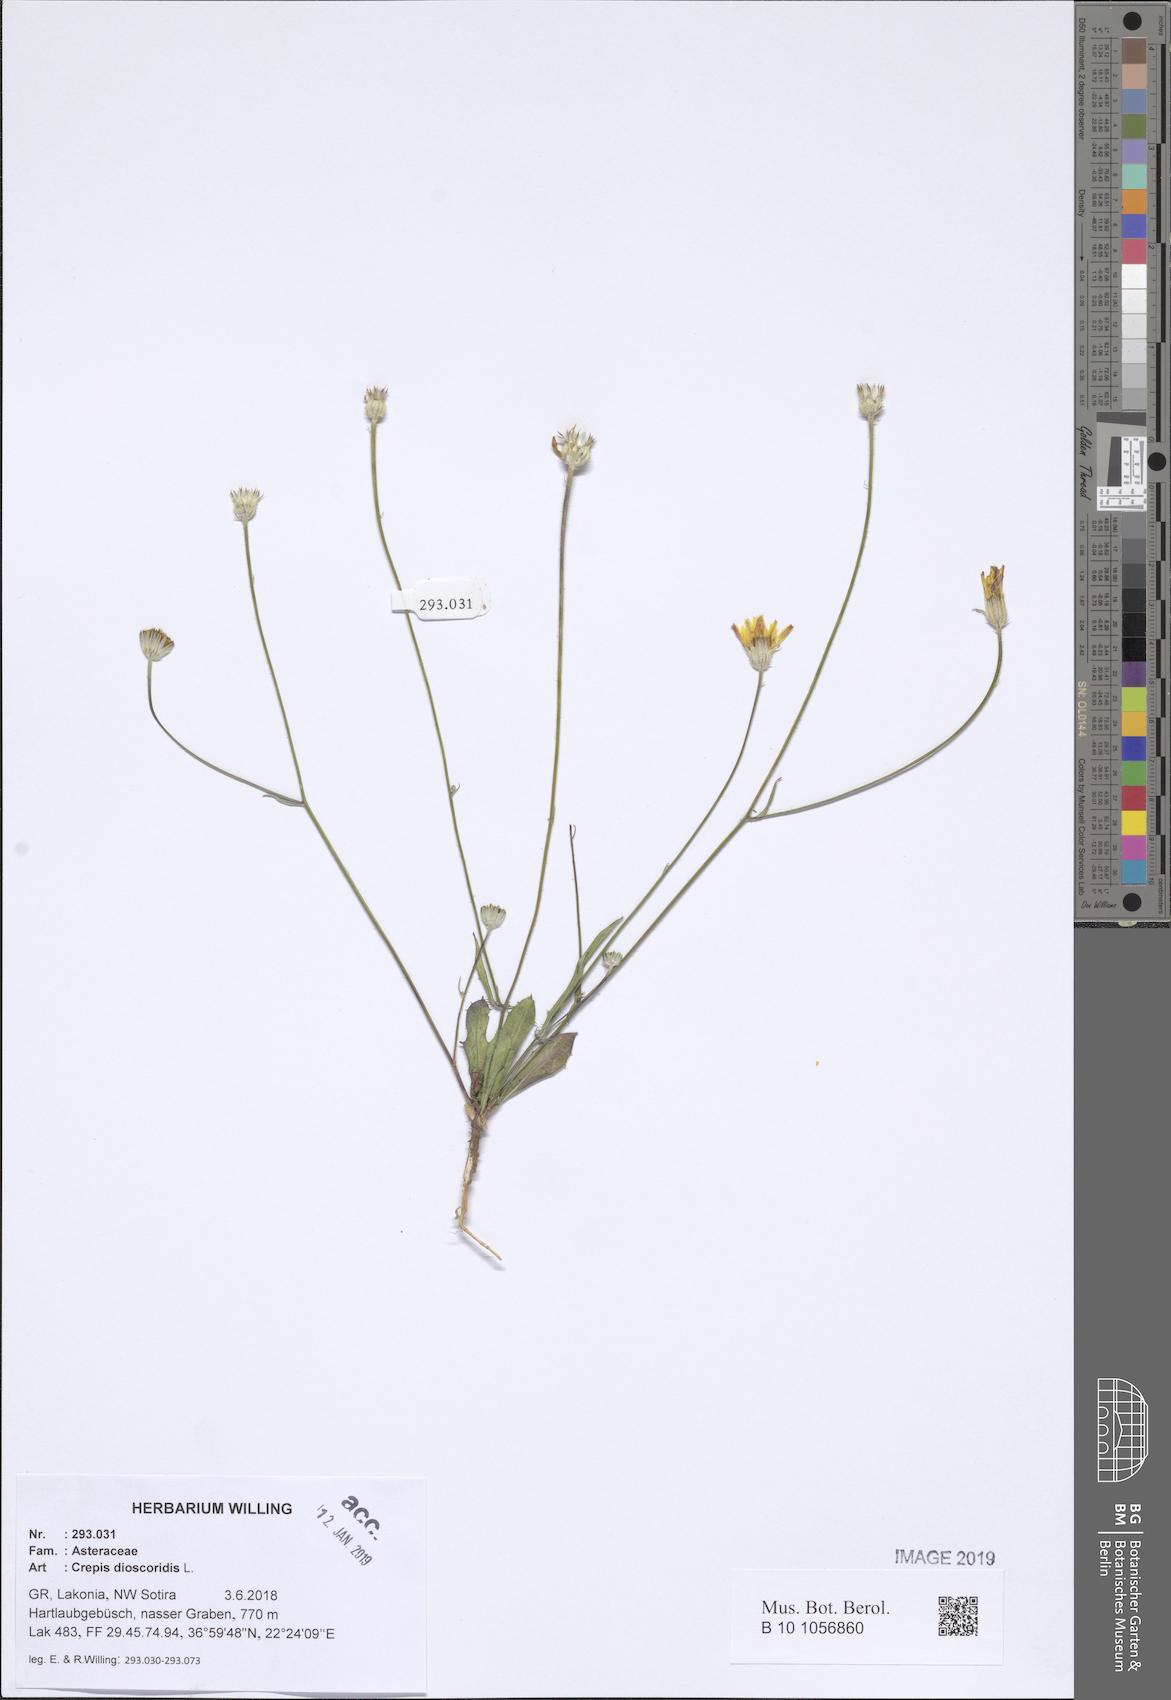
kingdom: Plantae
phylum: Tracheophyta
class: Magnoliopsida
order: Asterales
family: Asteraceae
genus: Crepis
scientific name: Crepis dioscoridis
